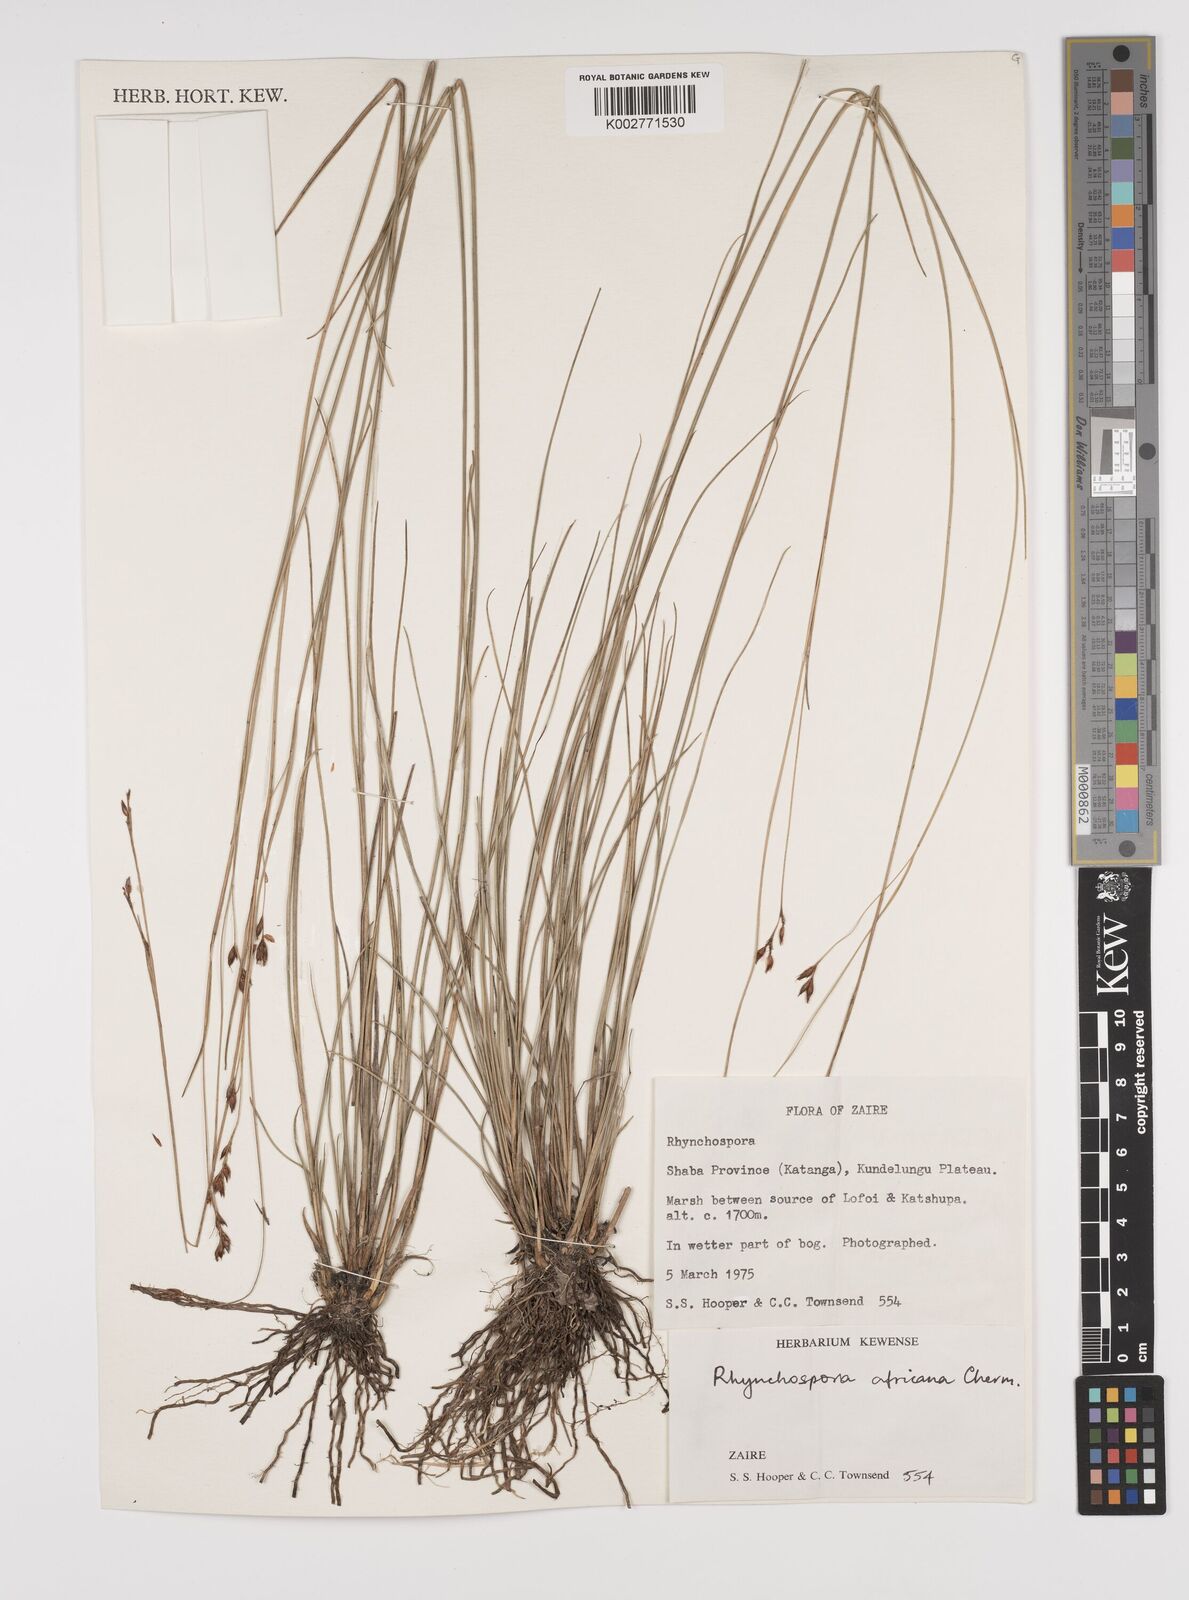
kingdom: Plantae
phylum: Tracheophyta
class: Liliopsida
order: Poales
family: Cyperaceae
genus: Rhynchospora
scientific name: Rhynchospora angolensis
